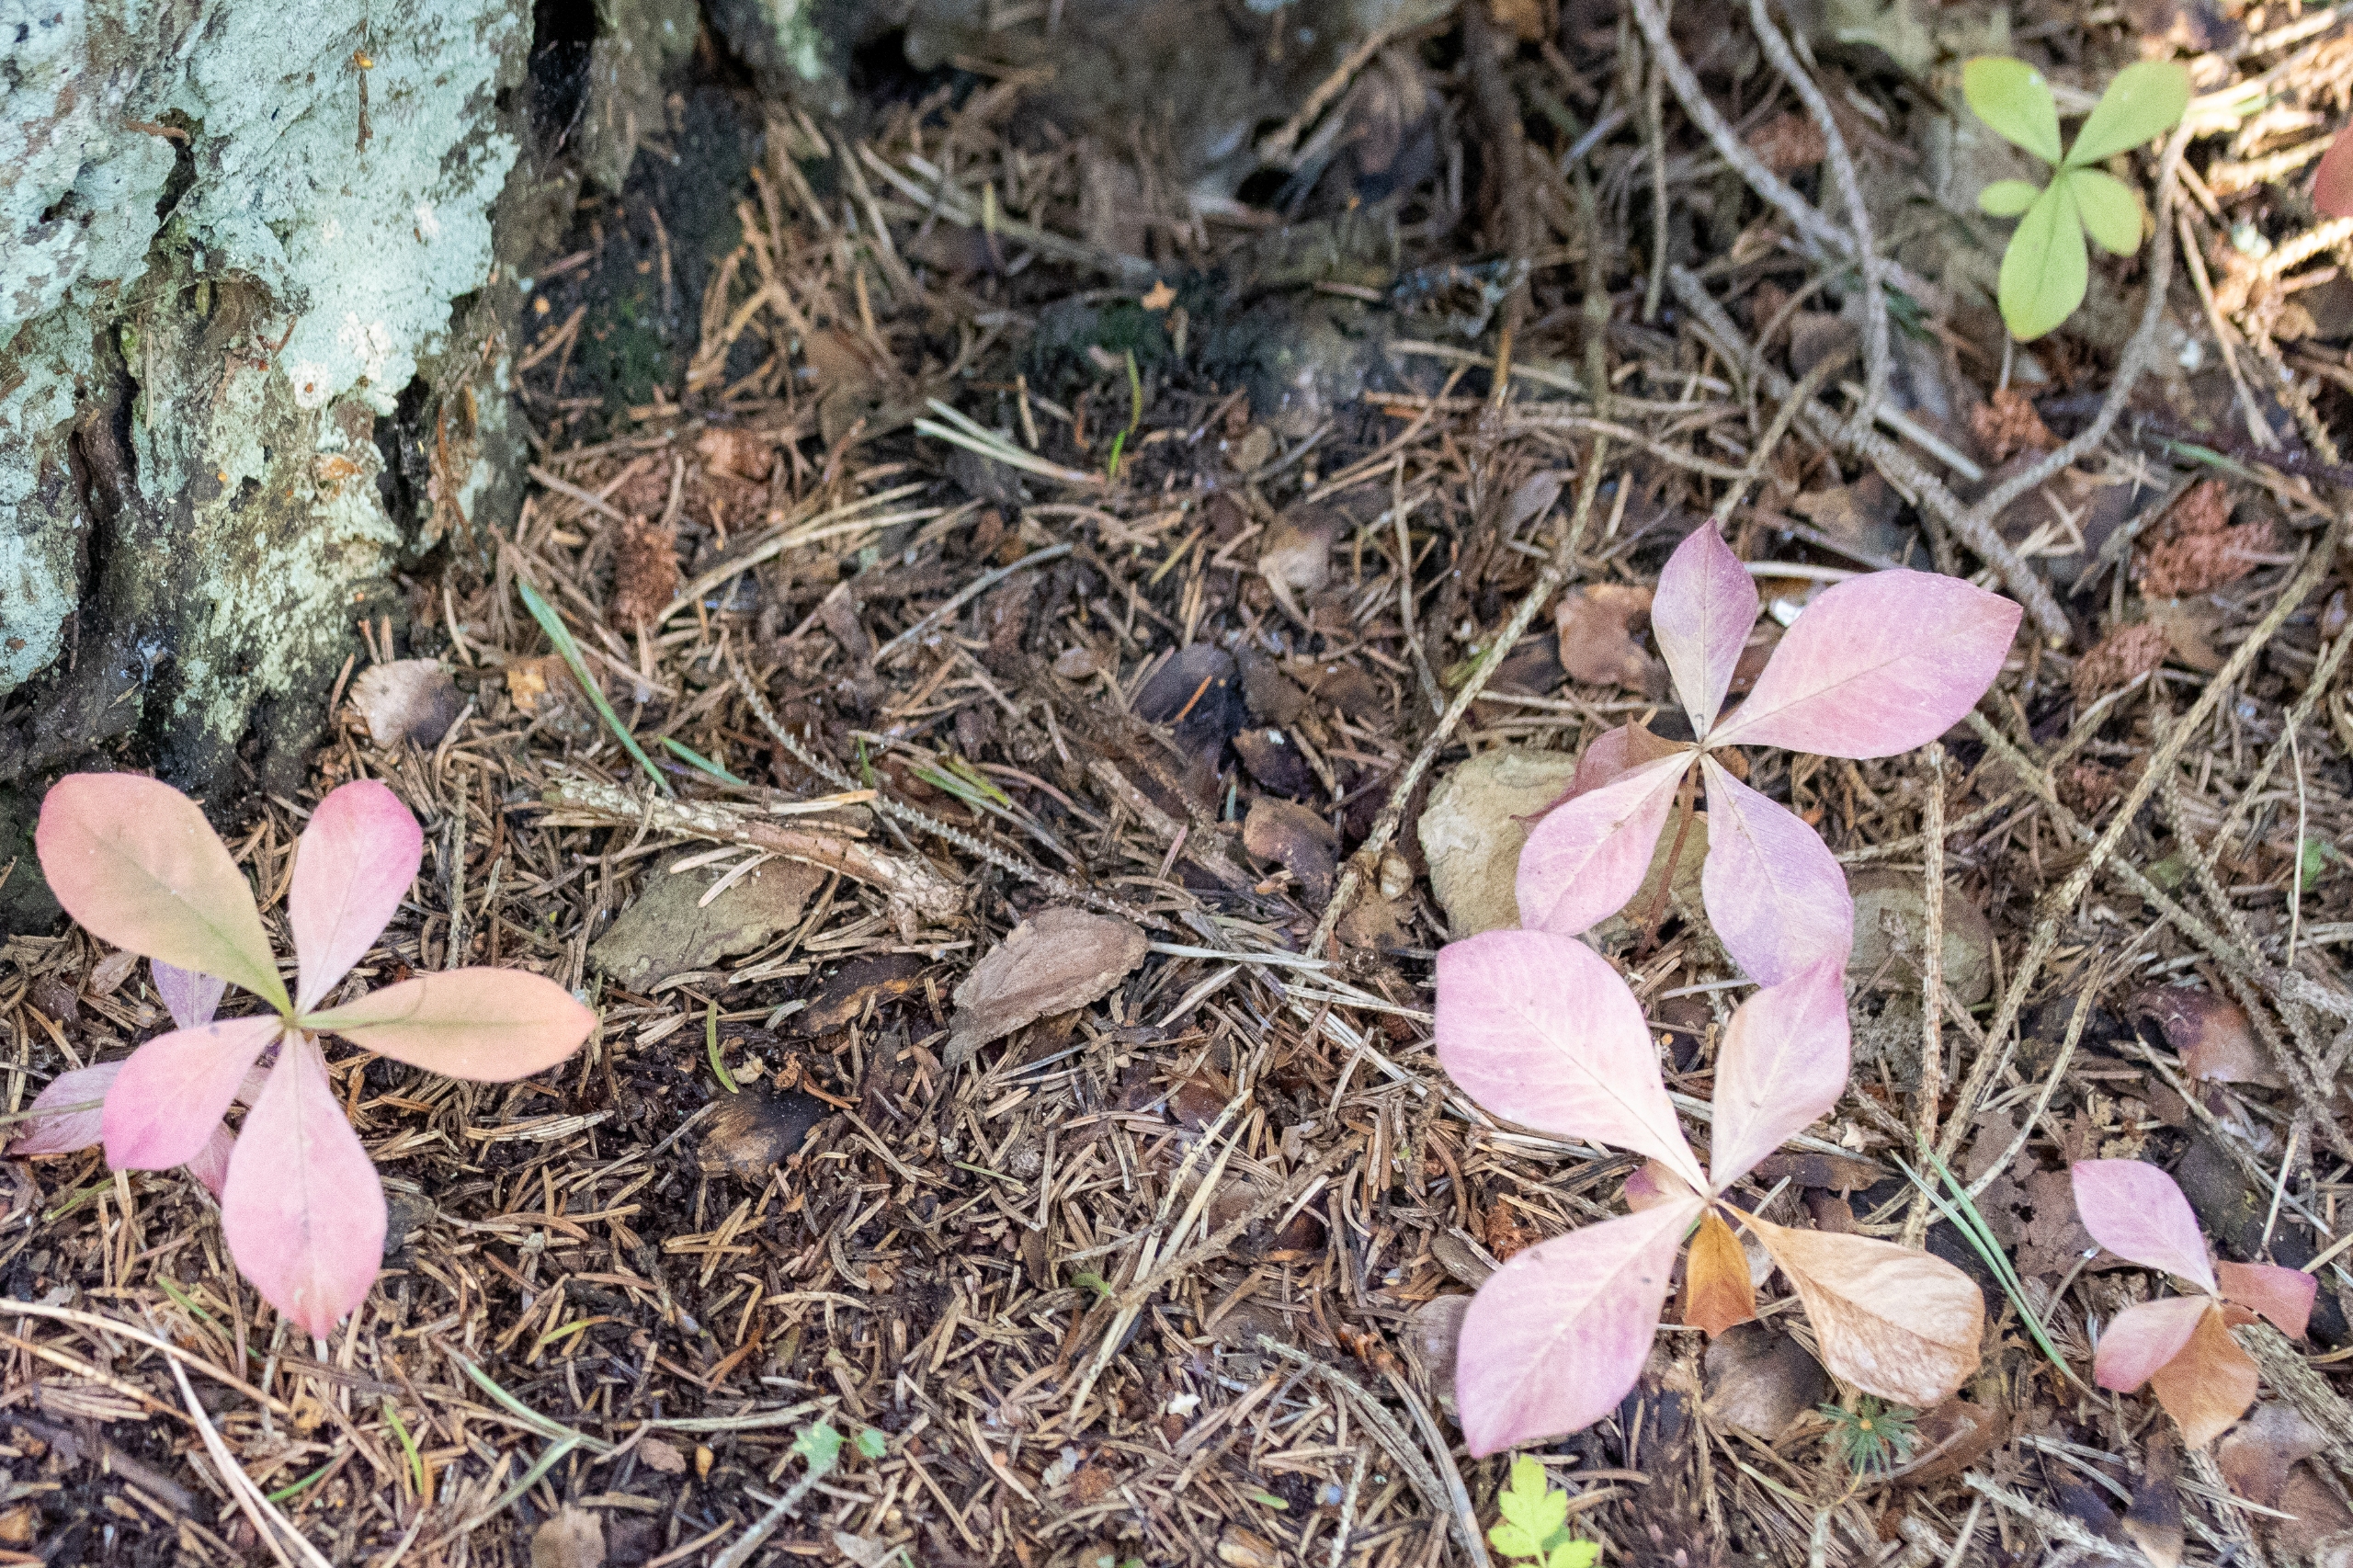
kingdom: Plantae
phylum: Tracheophyta
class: Magnoliopsida
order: Ericales
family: Primulaceae
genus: Lysimachia
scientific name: Lysimachia europaea
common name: Skovstjerne
